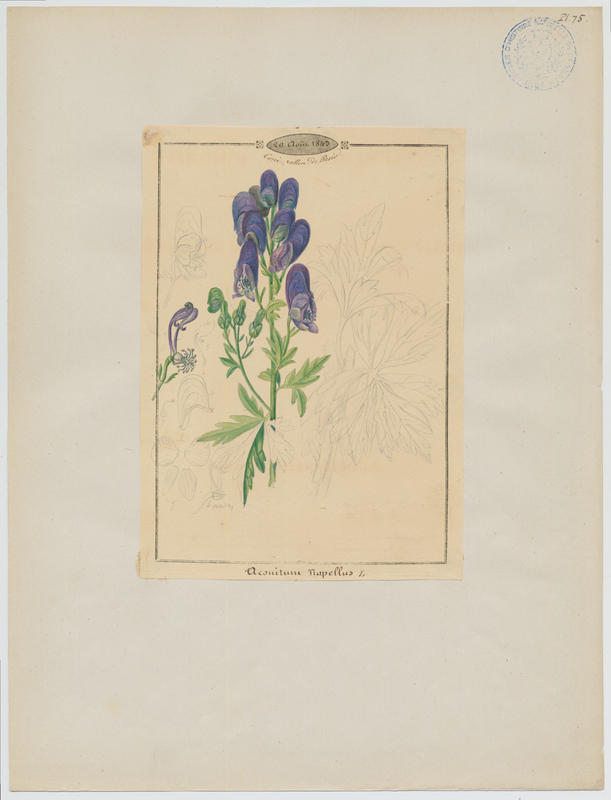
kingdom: Plantae
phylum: Tracheophyta
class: Magnoliopsida
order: Ranunculales
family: Ranunculaceae
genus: Aconitum
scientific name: Aconitum napellus
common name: Garden monkshood
